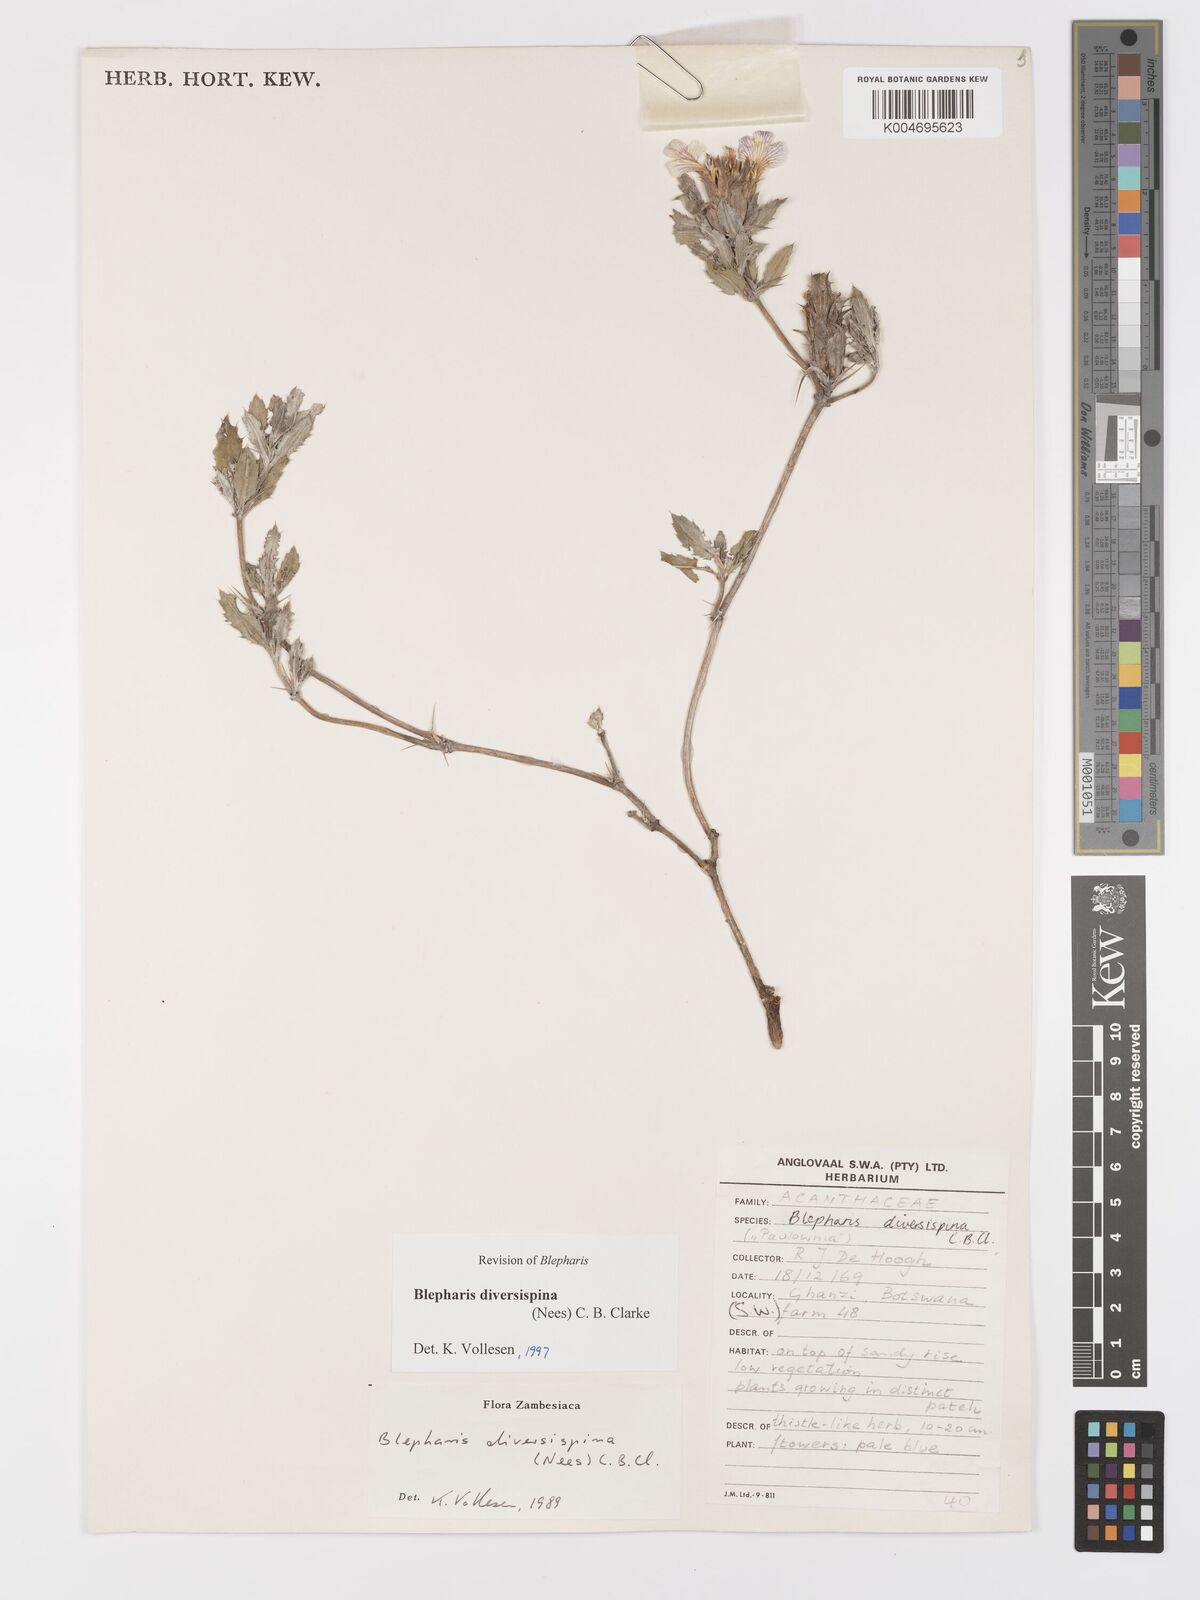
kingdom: Plantae
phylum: Tracheophyta
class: Magnoliopsida
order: Lamiales
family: Acanthaceae
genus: Blepharis
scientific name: Blepharis diversispina
